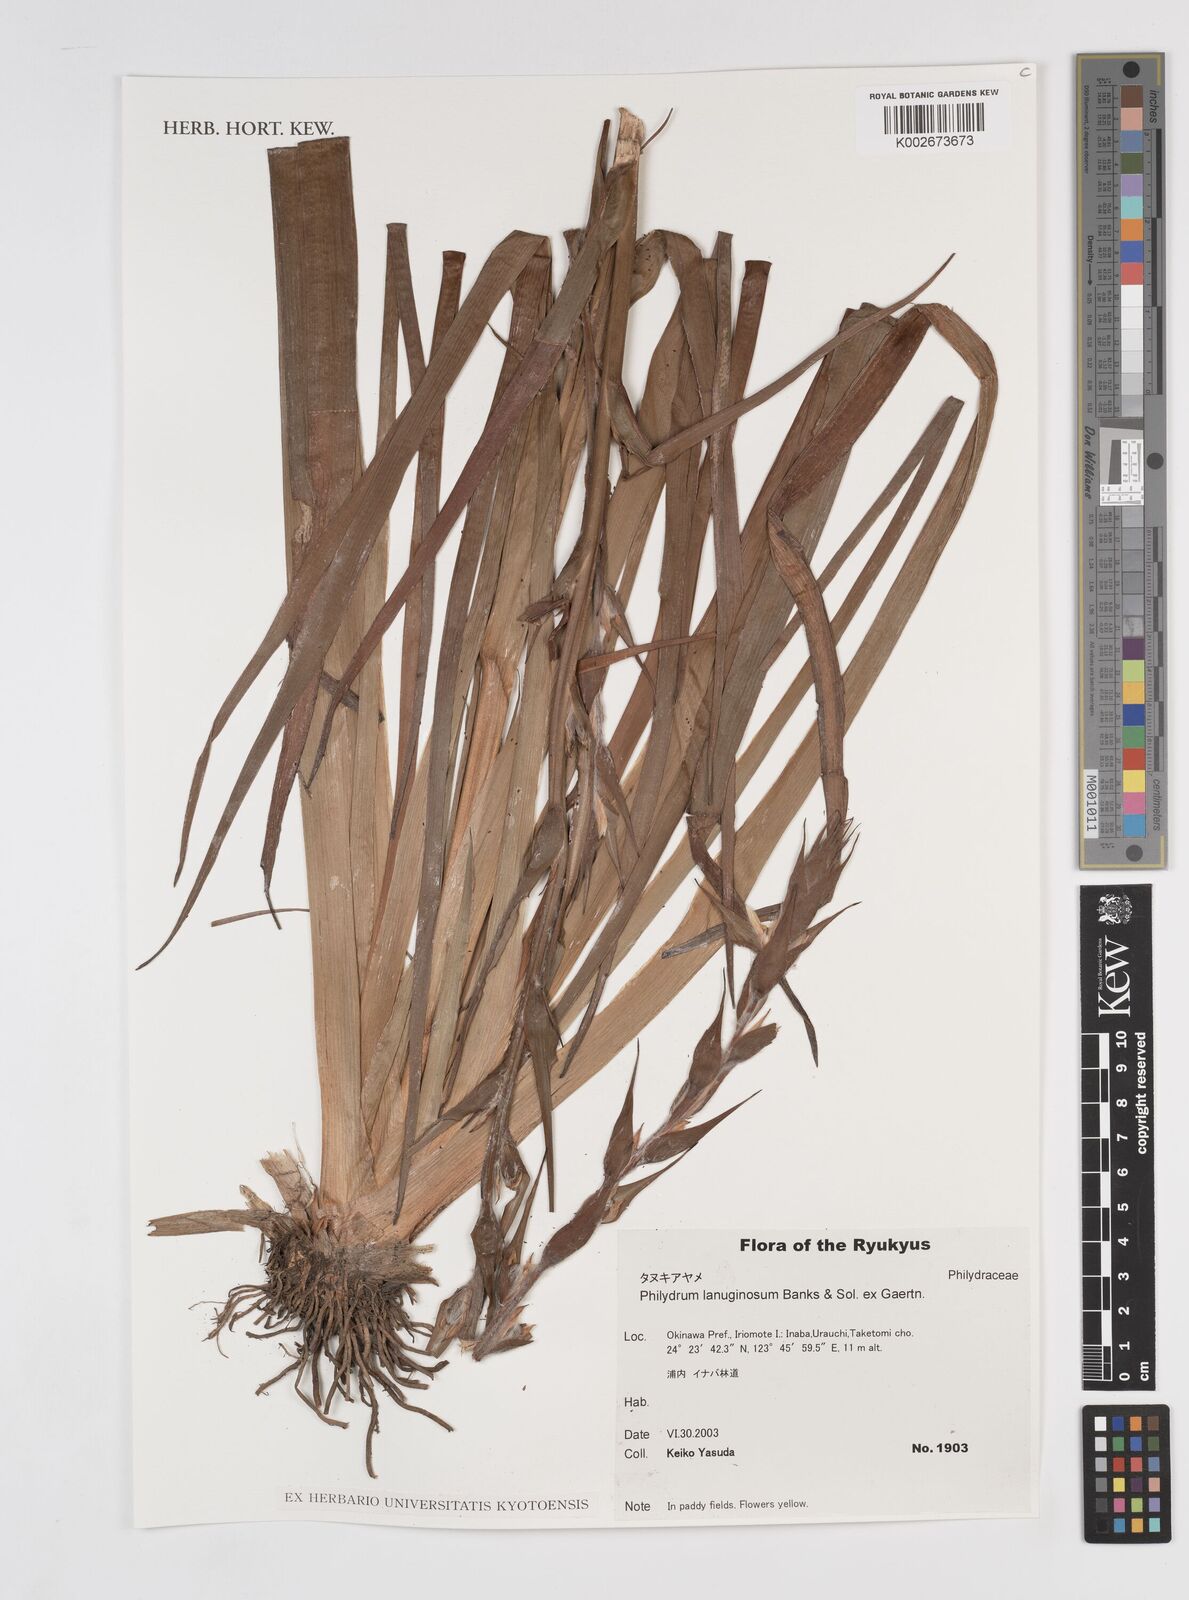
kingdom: Plantae
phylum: Tracheophyta
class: Liliopsida
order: Commelinales
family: Philydraceae
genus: Philydrum
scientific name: Philydrum lanuginosum
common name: Woolly frog's mouth
